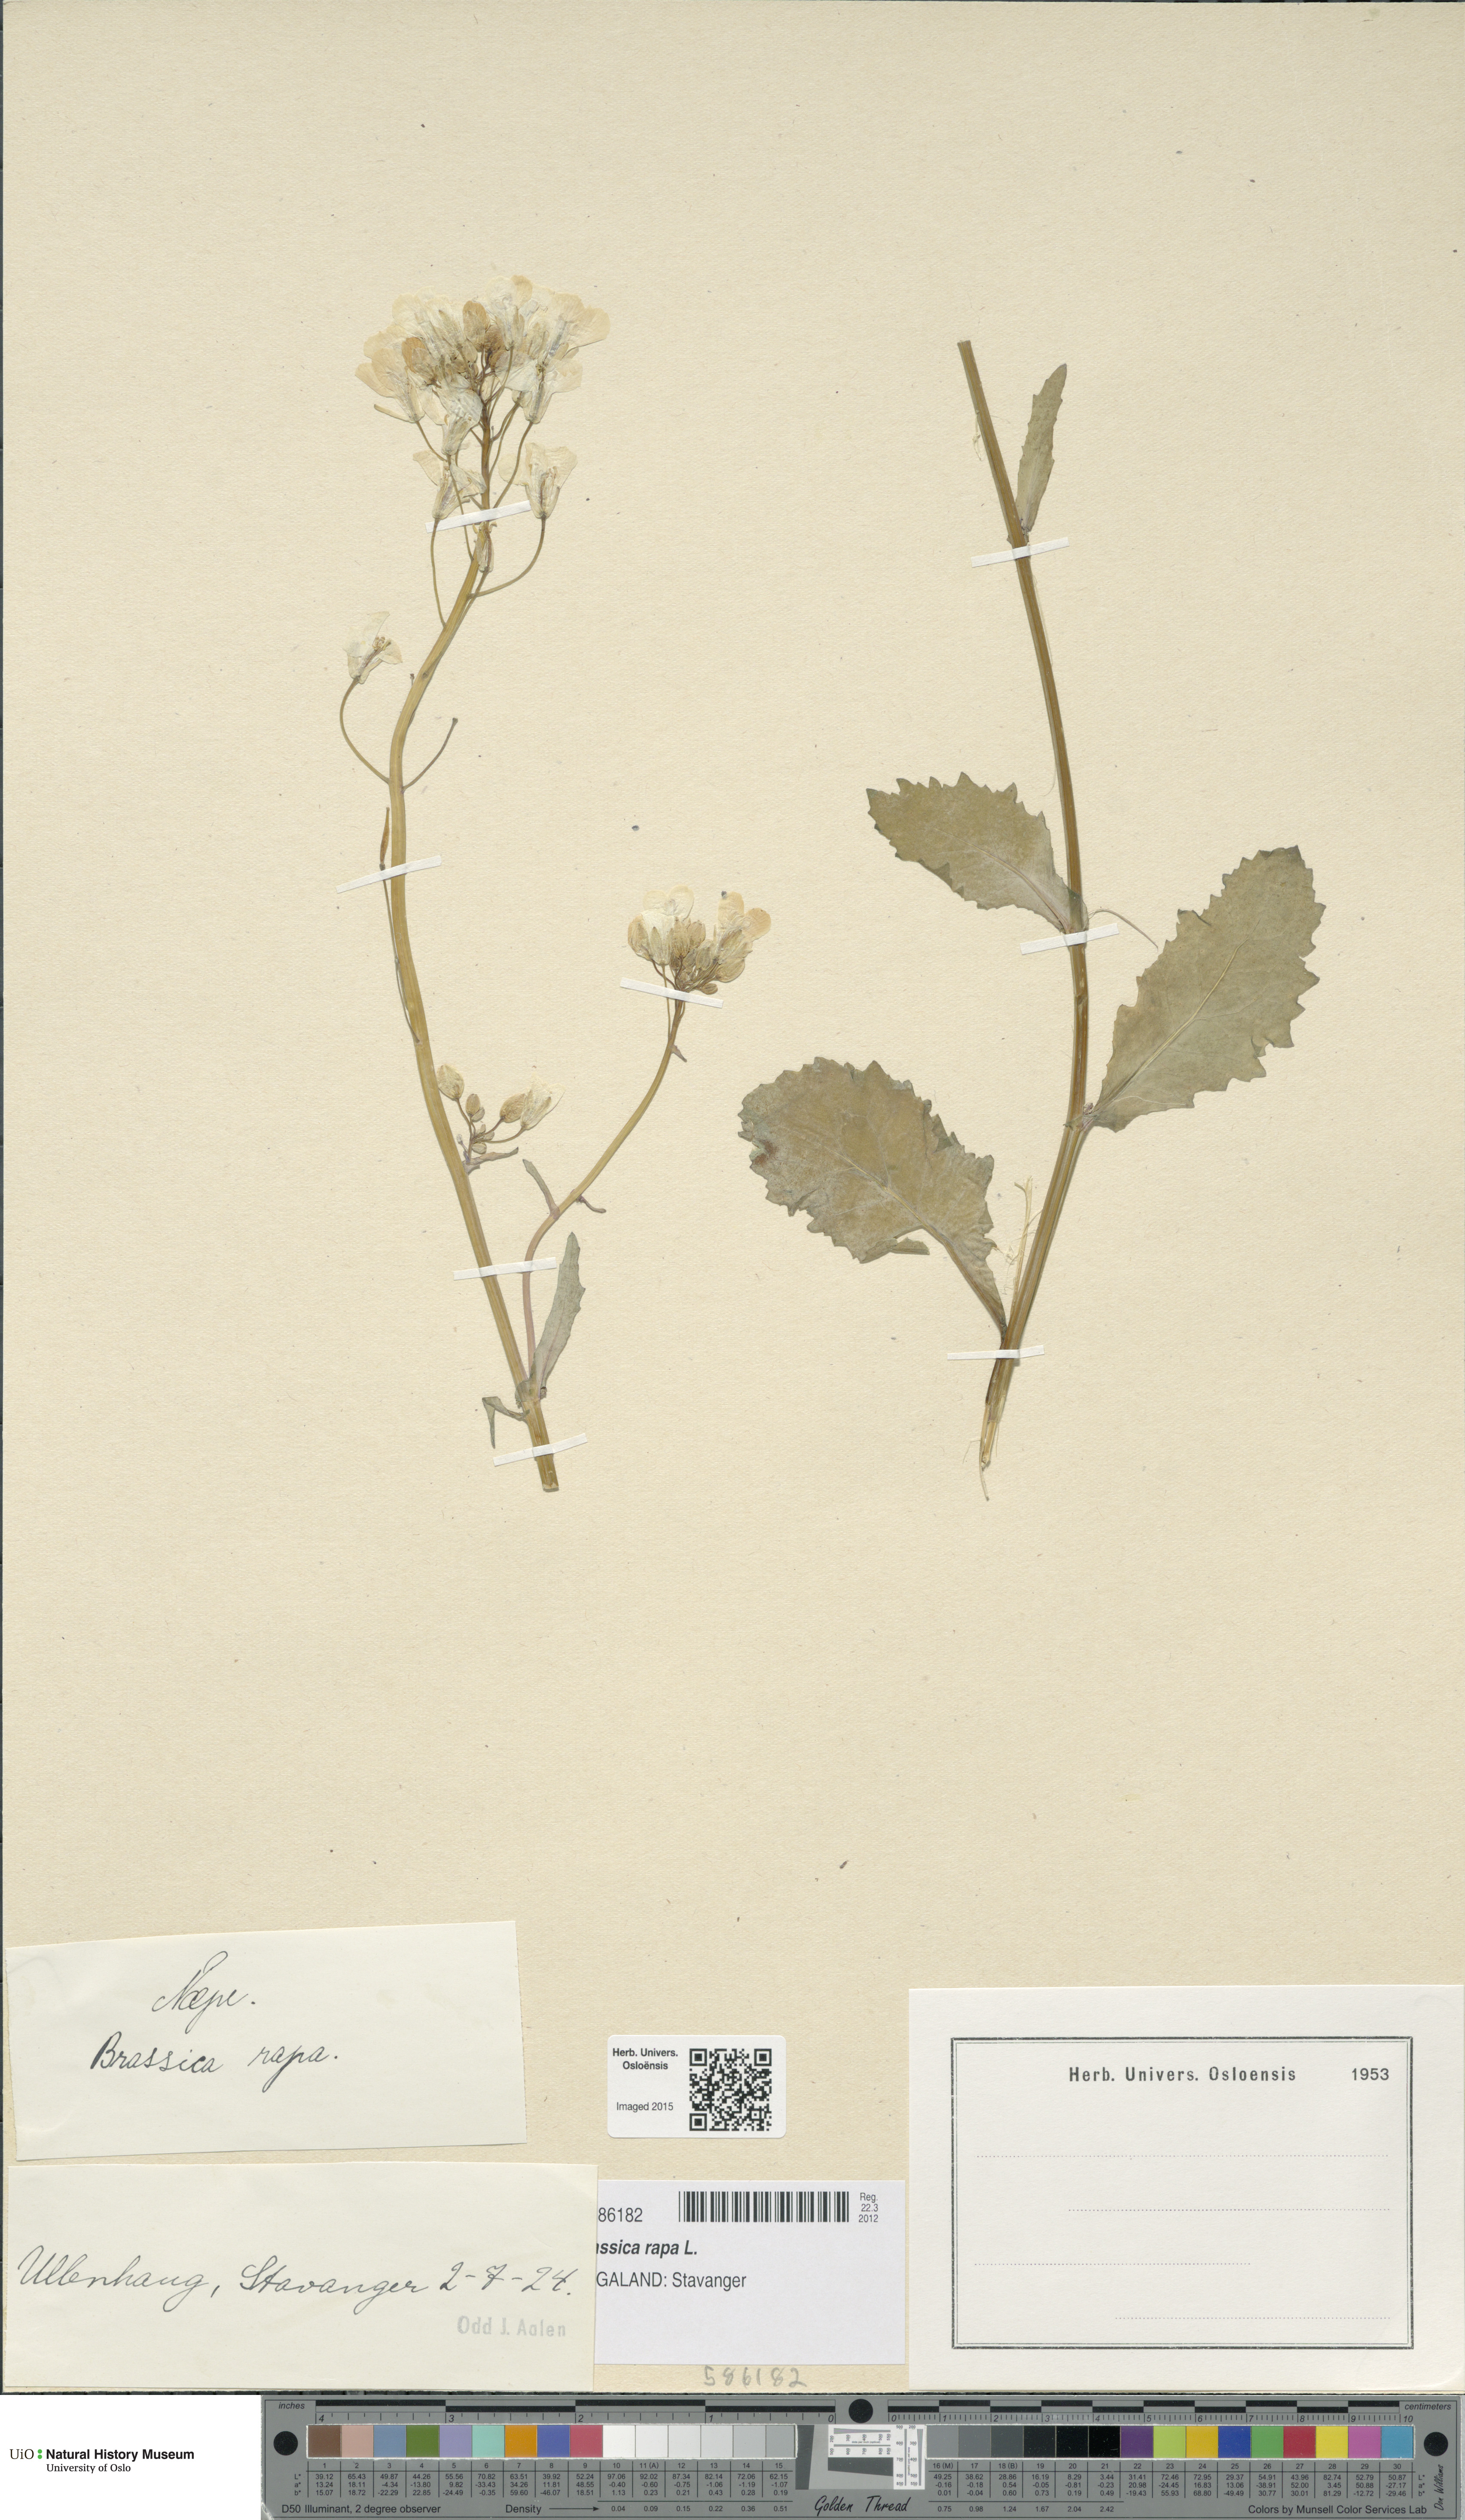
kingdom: Plantae
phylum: Tracheophyta
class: Magnoliopsida
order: Brassicales
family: Brassicaceae
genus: Brassica
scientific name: Brassica rapa
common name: Field mustard
